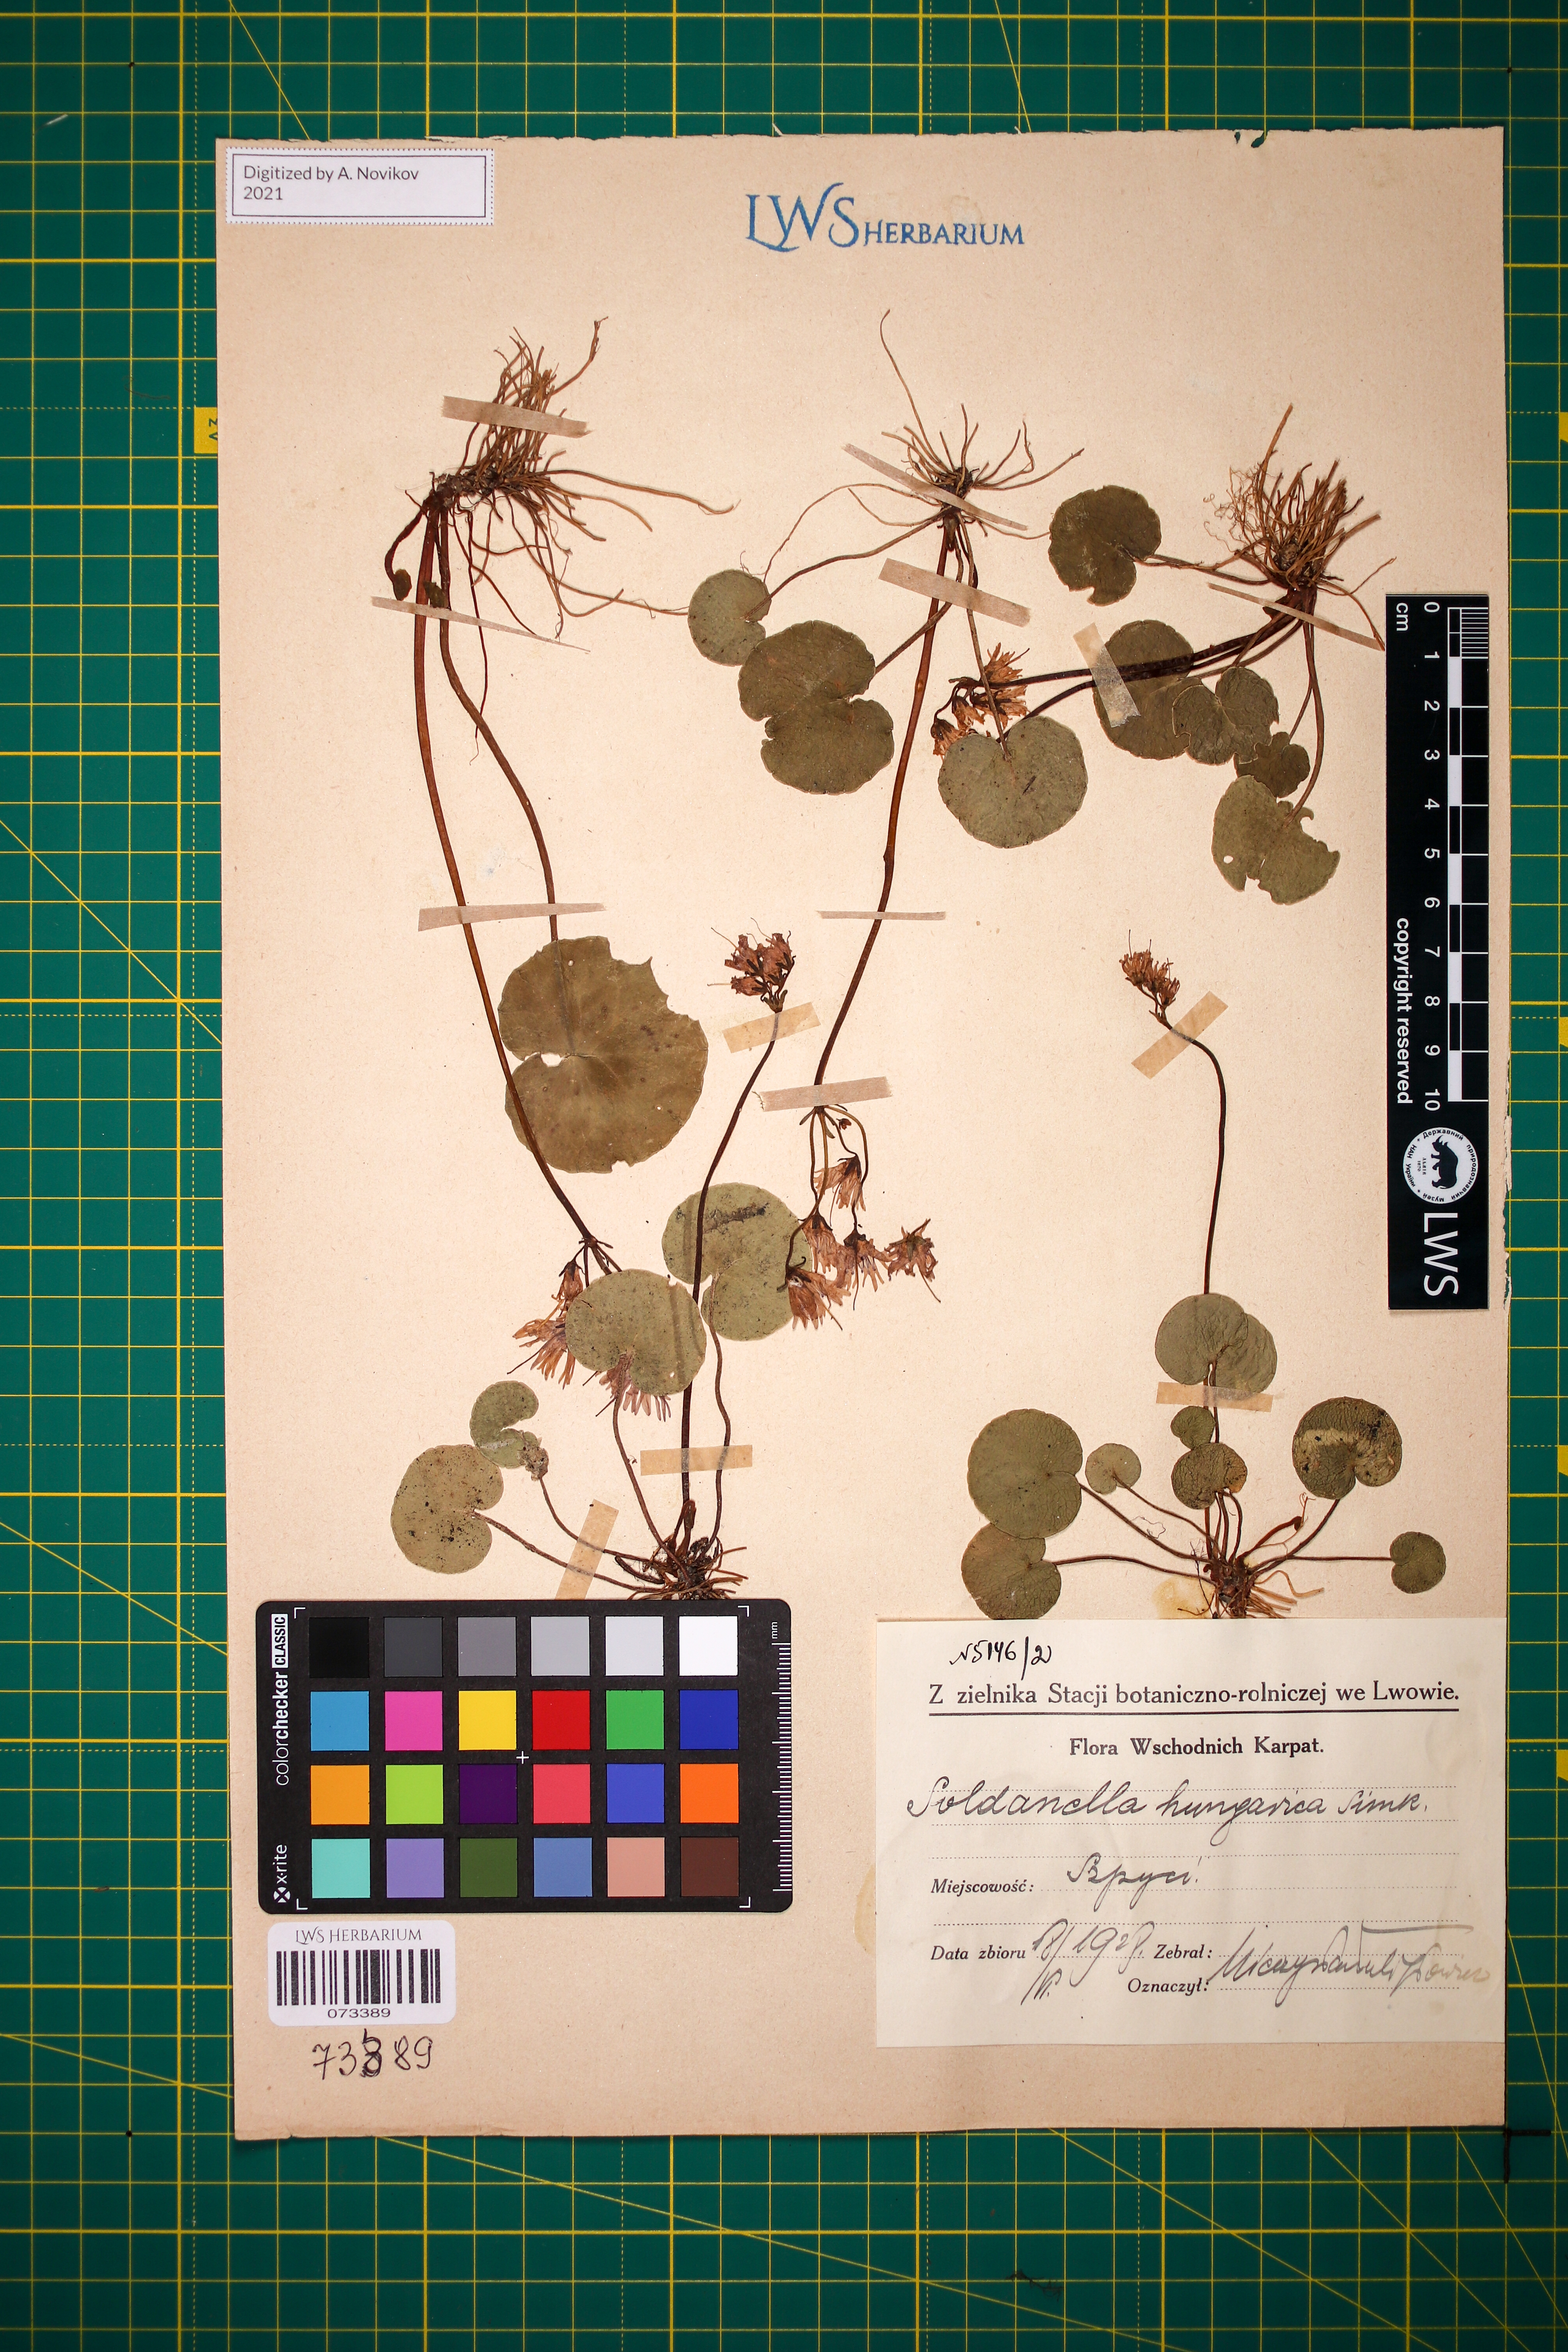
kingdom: Plantae
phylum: Tracheophyta
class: Magnoliopsida
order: Ericales
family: Primulaceae
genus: Soldanella
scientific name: Soldanella hungarica
